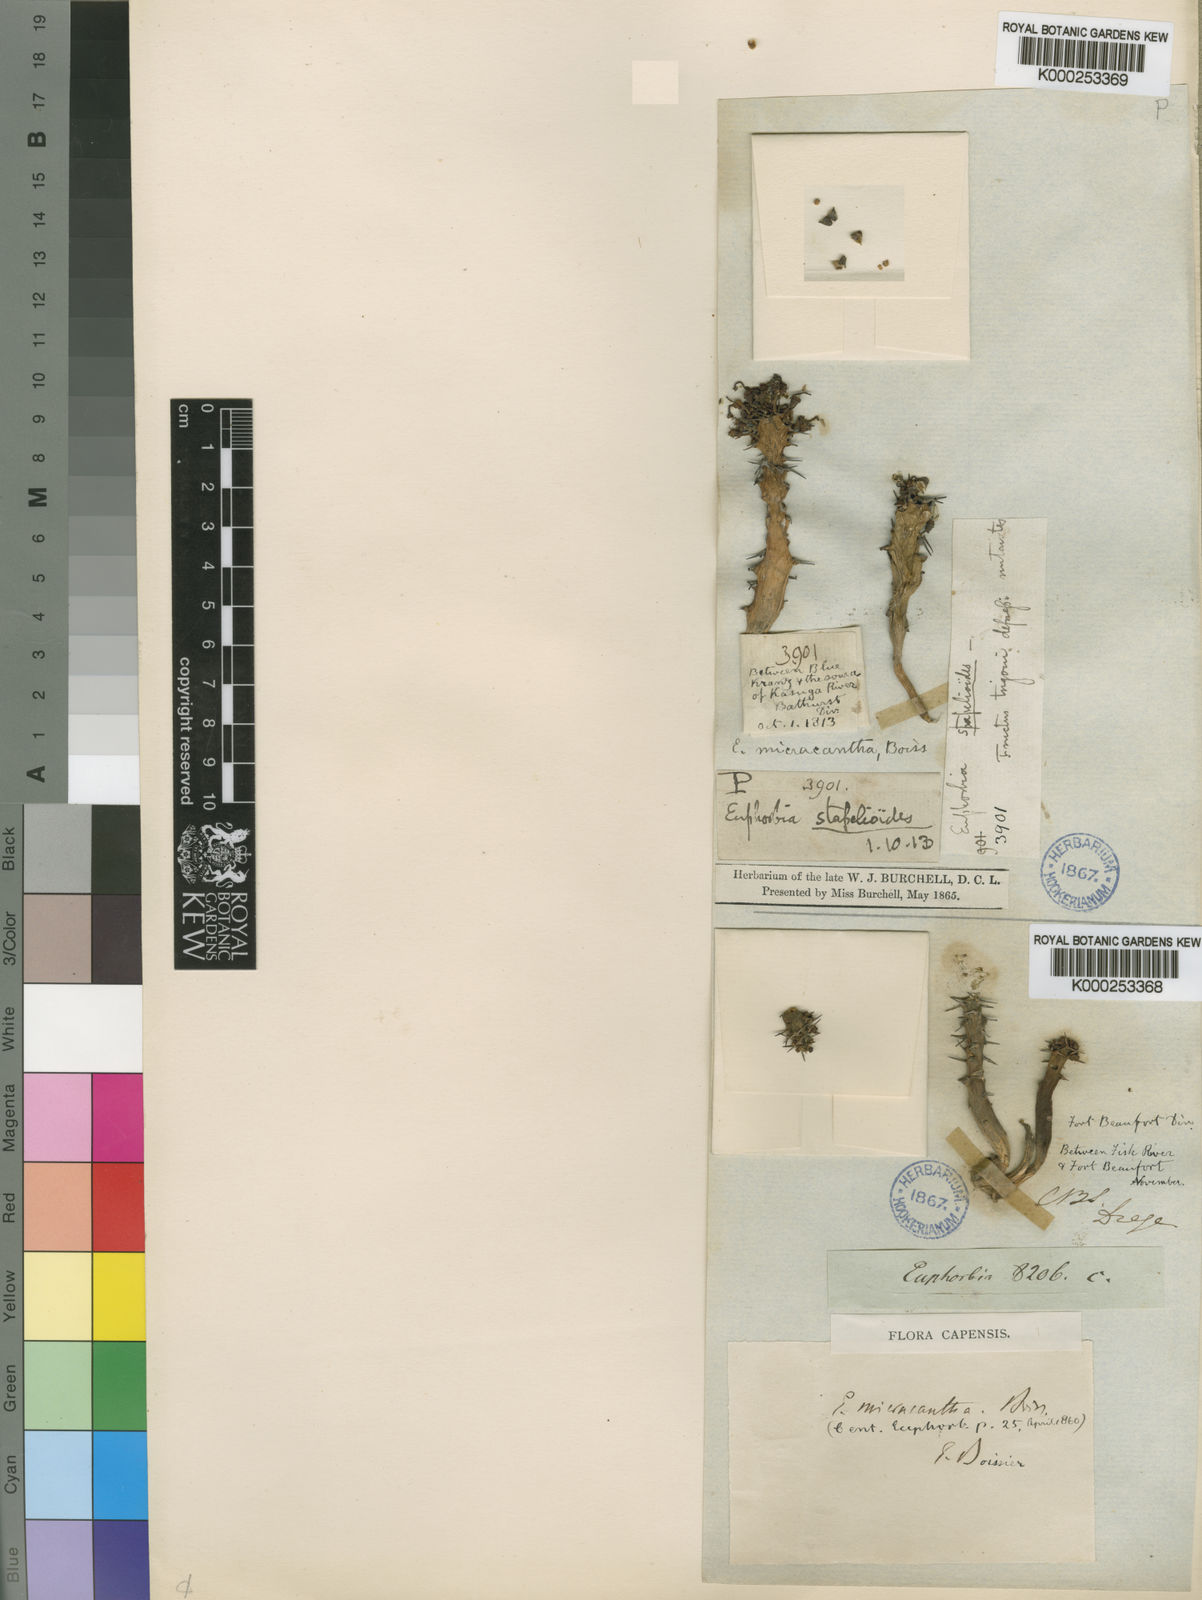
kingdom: Plantae
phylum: Tracheophyta
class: Magnoliopsida
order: Malpighiales
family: Euphorbiaceae
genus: Euphorbia
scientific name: Euphorbia micracantha
